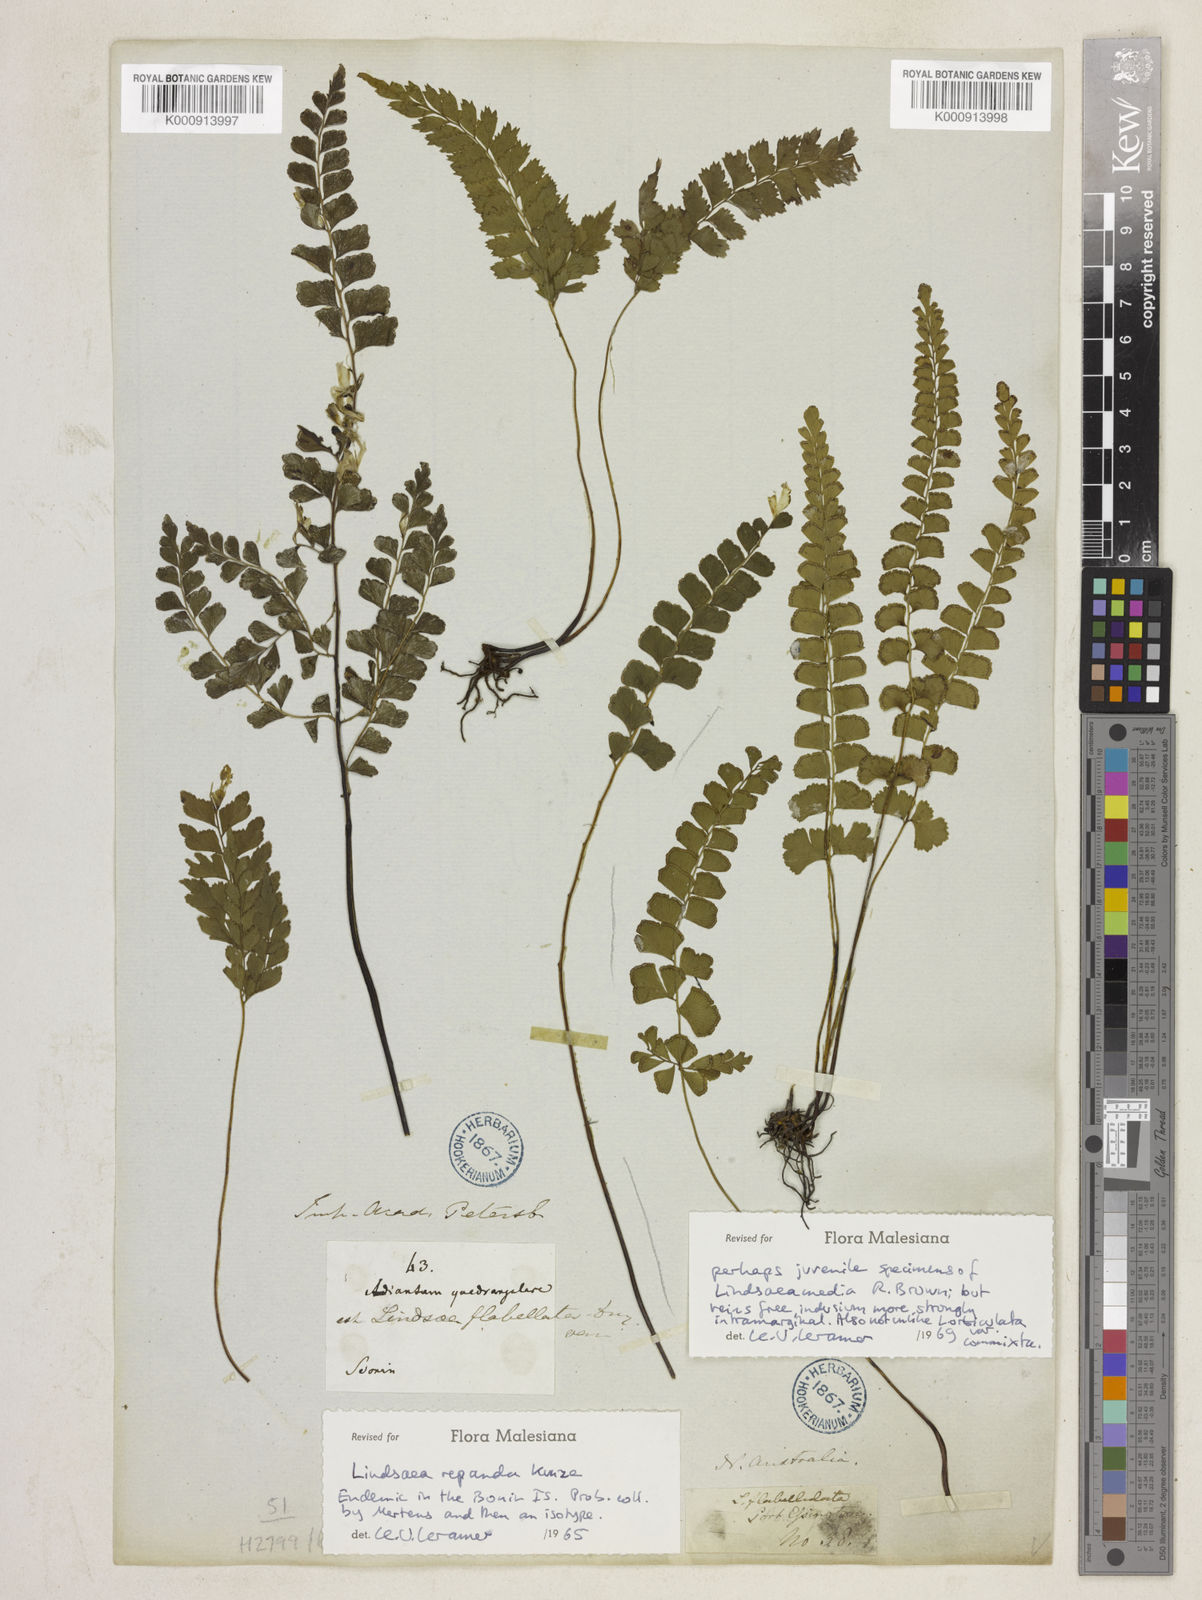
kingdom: Plantae
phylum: Tracheophyta
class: Polypodiopsida
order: Polypodiales
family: Lindsaeaceae
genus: Lindsaea
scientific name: Lindsaea repanda
